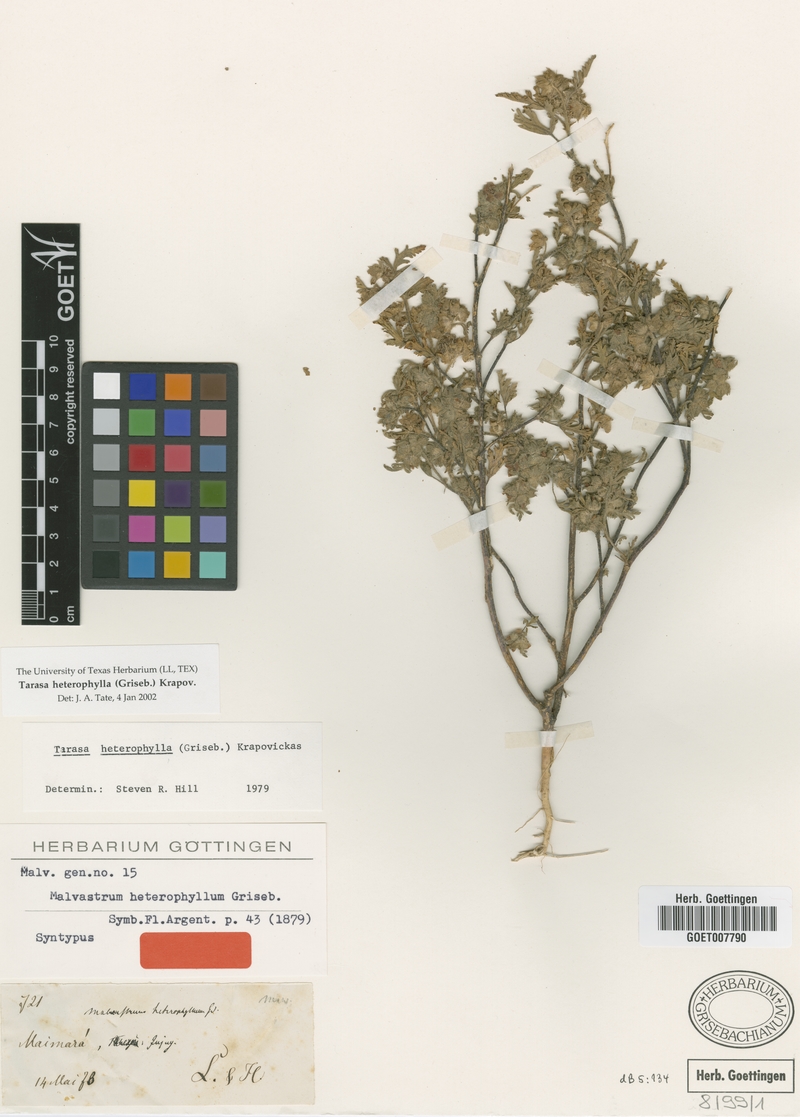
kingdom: Plantae
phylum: Tracheophyta
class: Magnoliopsida
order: Malvales
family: Malvaceae
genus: Tarasa
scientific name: Tarasa heterophylla
